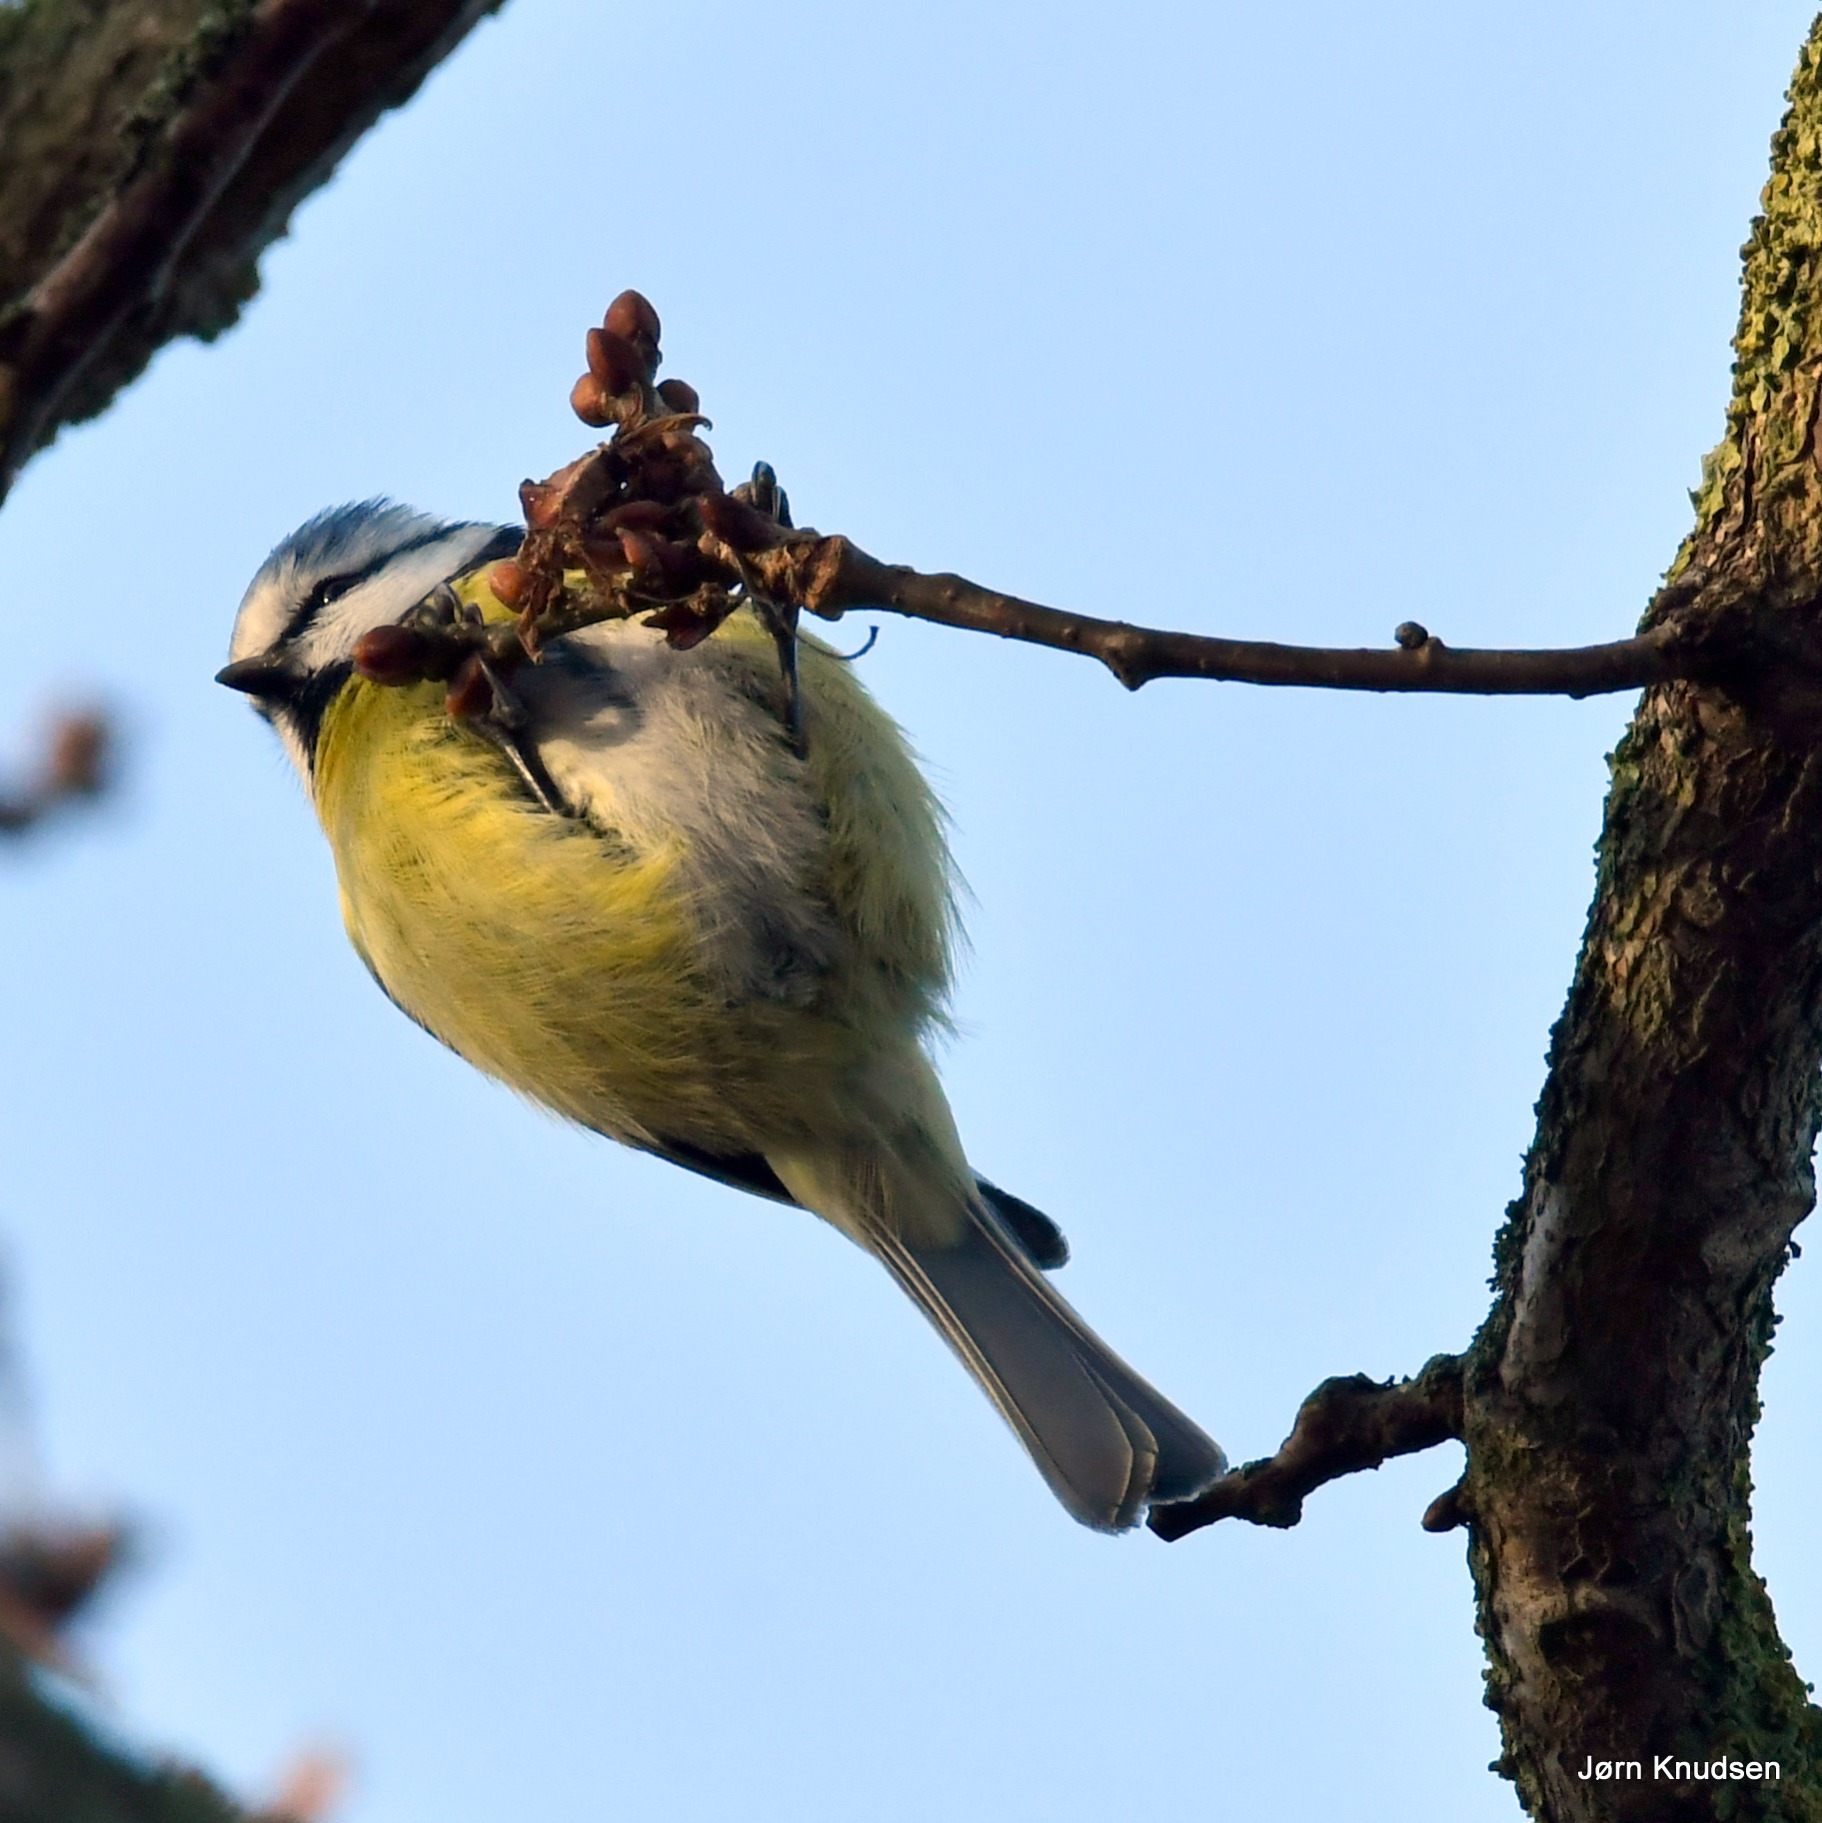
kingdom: Animalia
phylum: Chordata
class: Aves
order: Passeriformes
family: Paridae
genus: Cyanistes
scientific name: Cyanistes caeruleus
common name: Blåmejse
